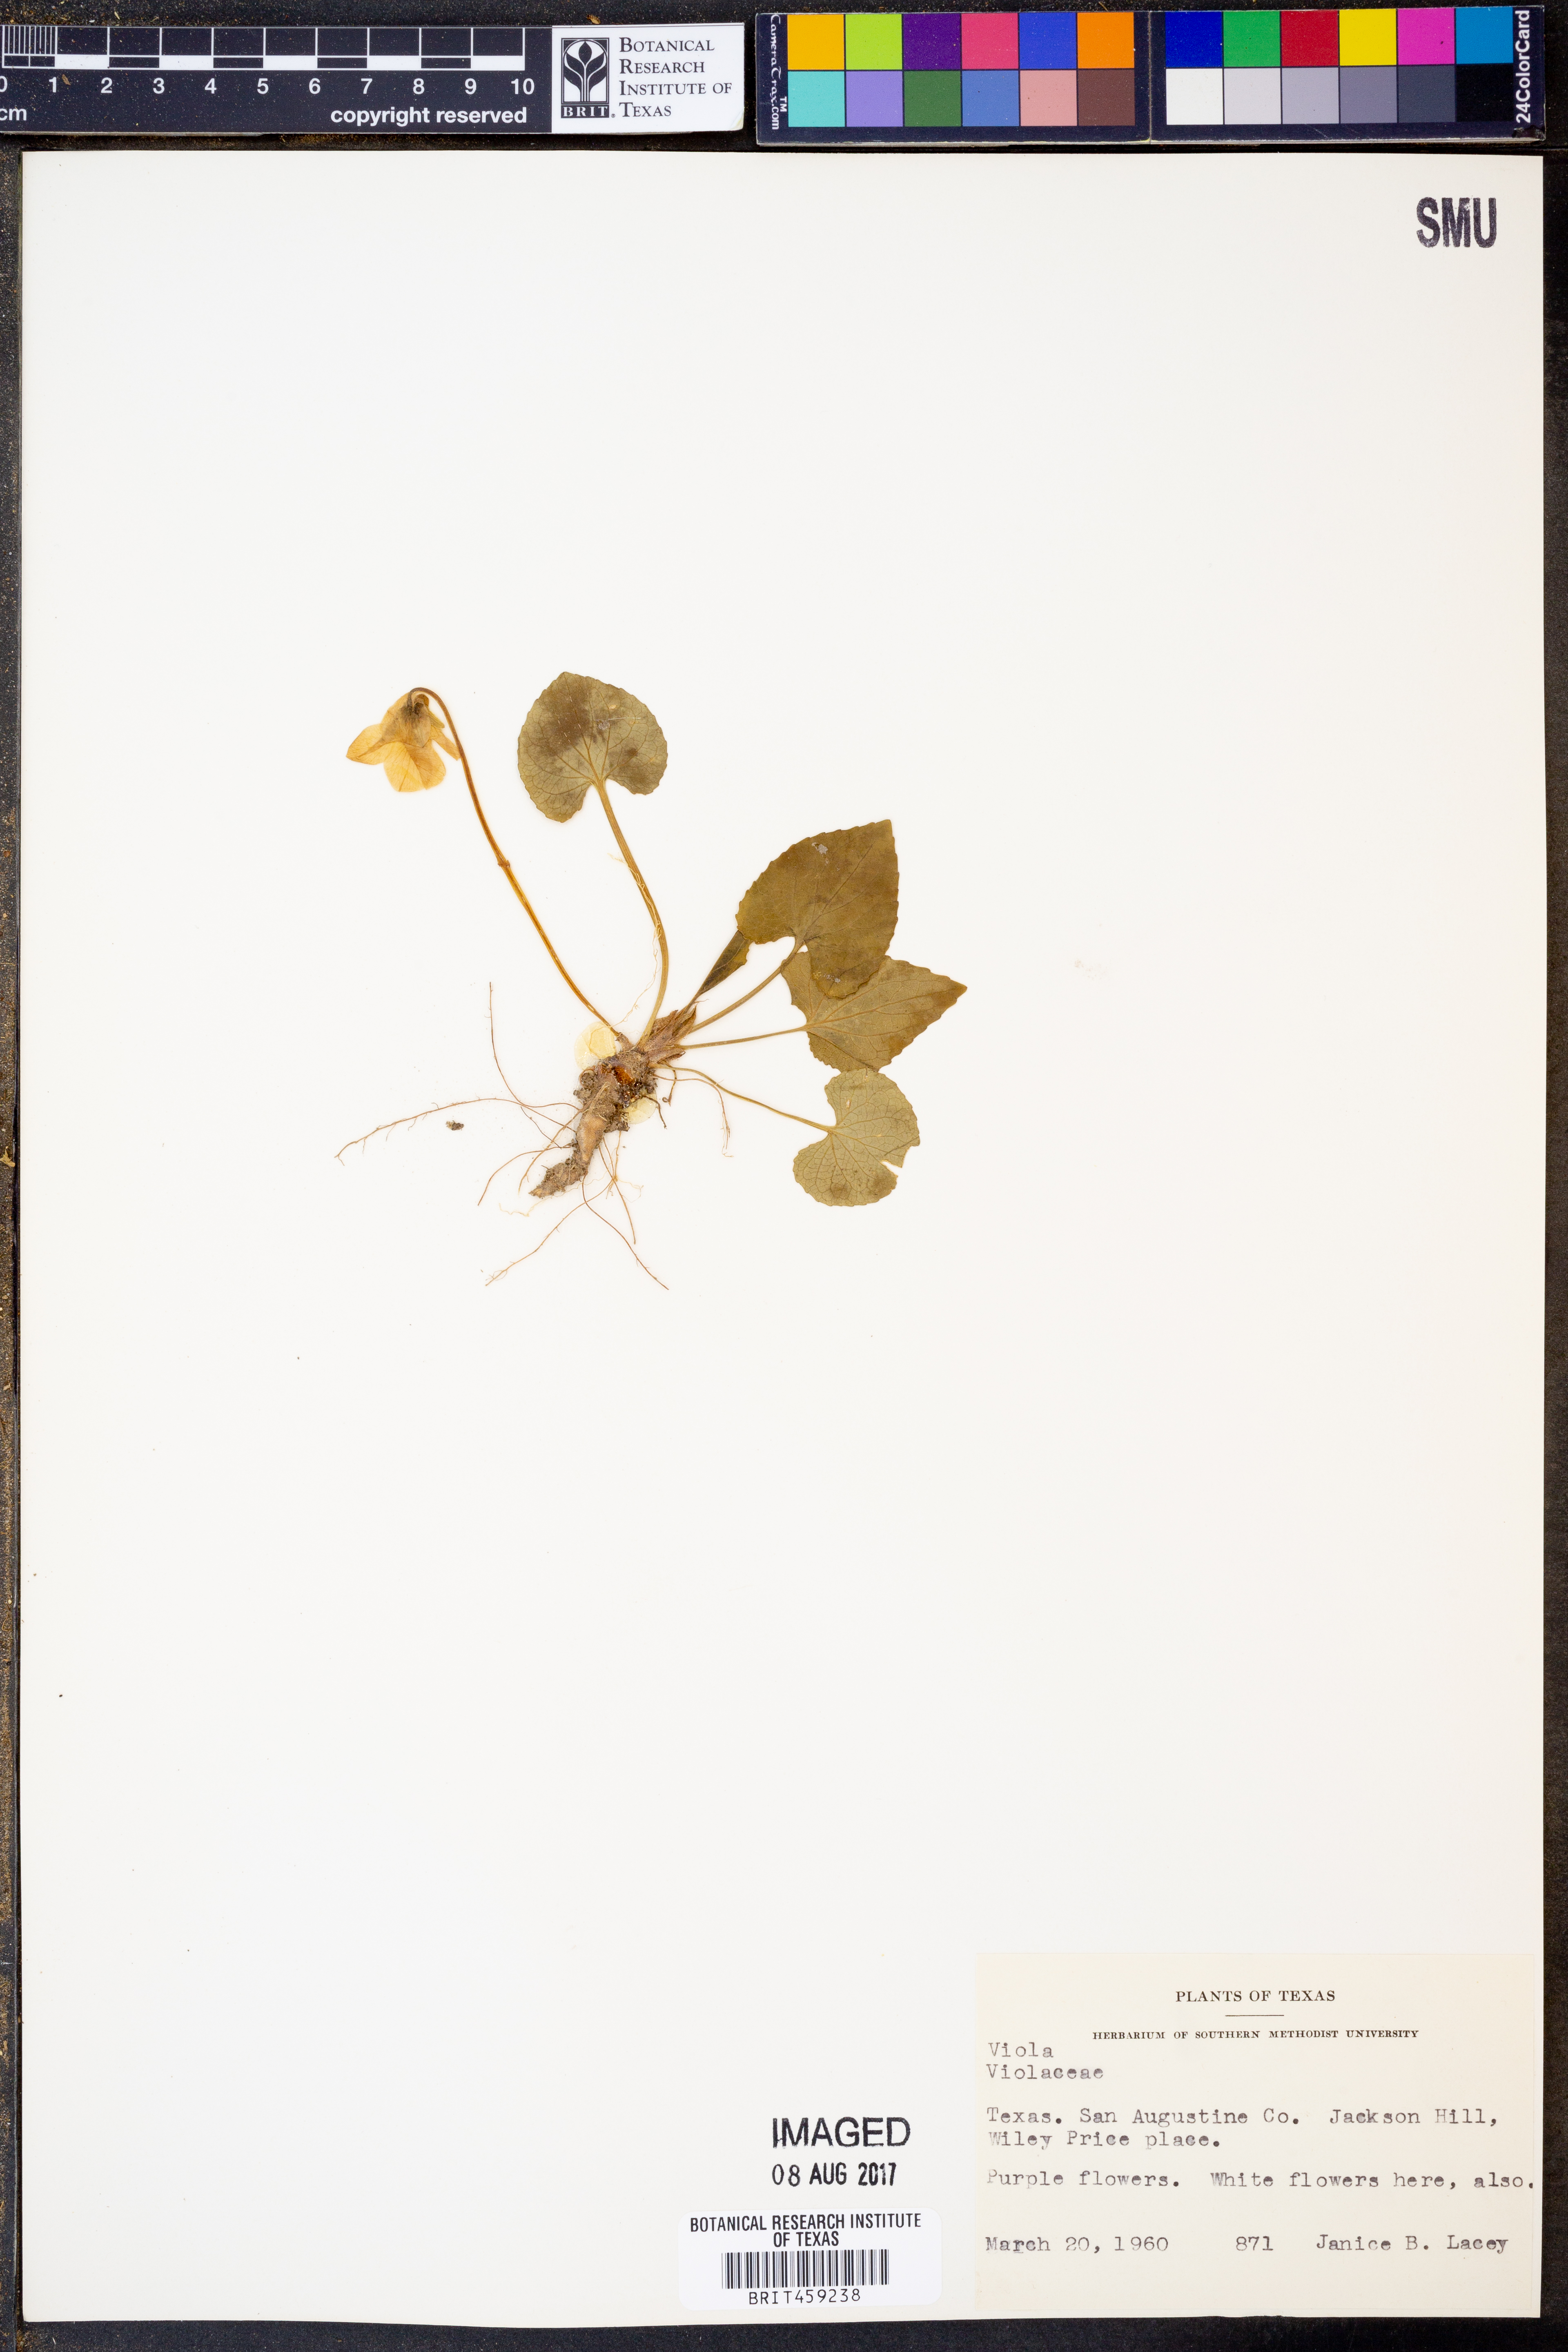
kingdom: Plantae
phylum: Tracheophyta
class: Magnoliopsida
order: Malpighiales
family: Violaceae
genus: Viola
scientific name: Viola
